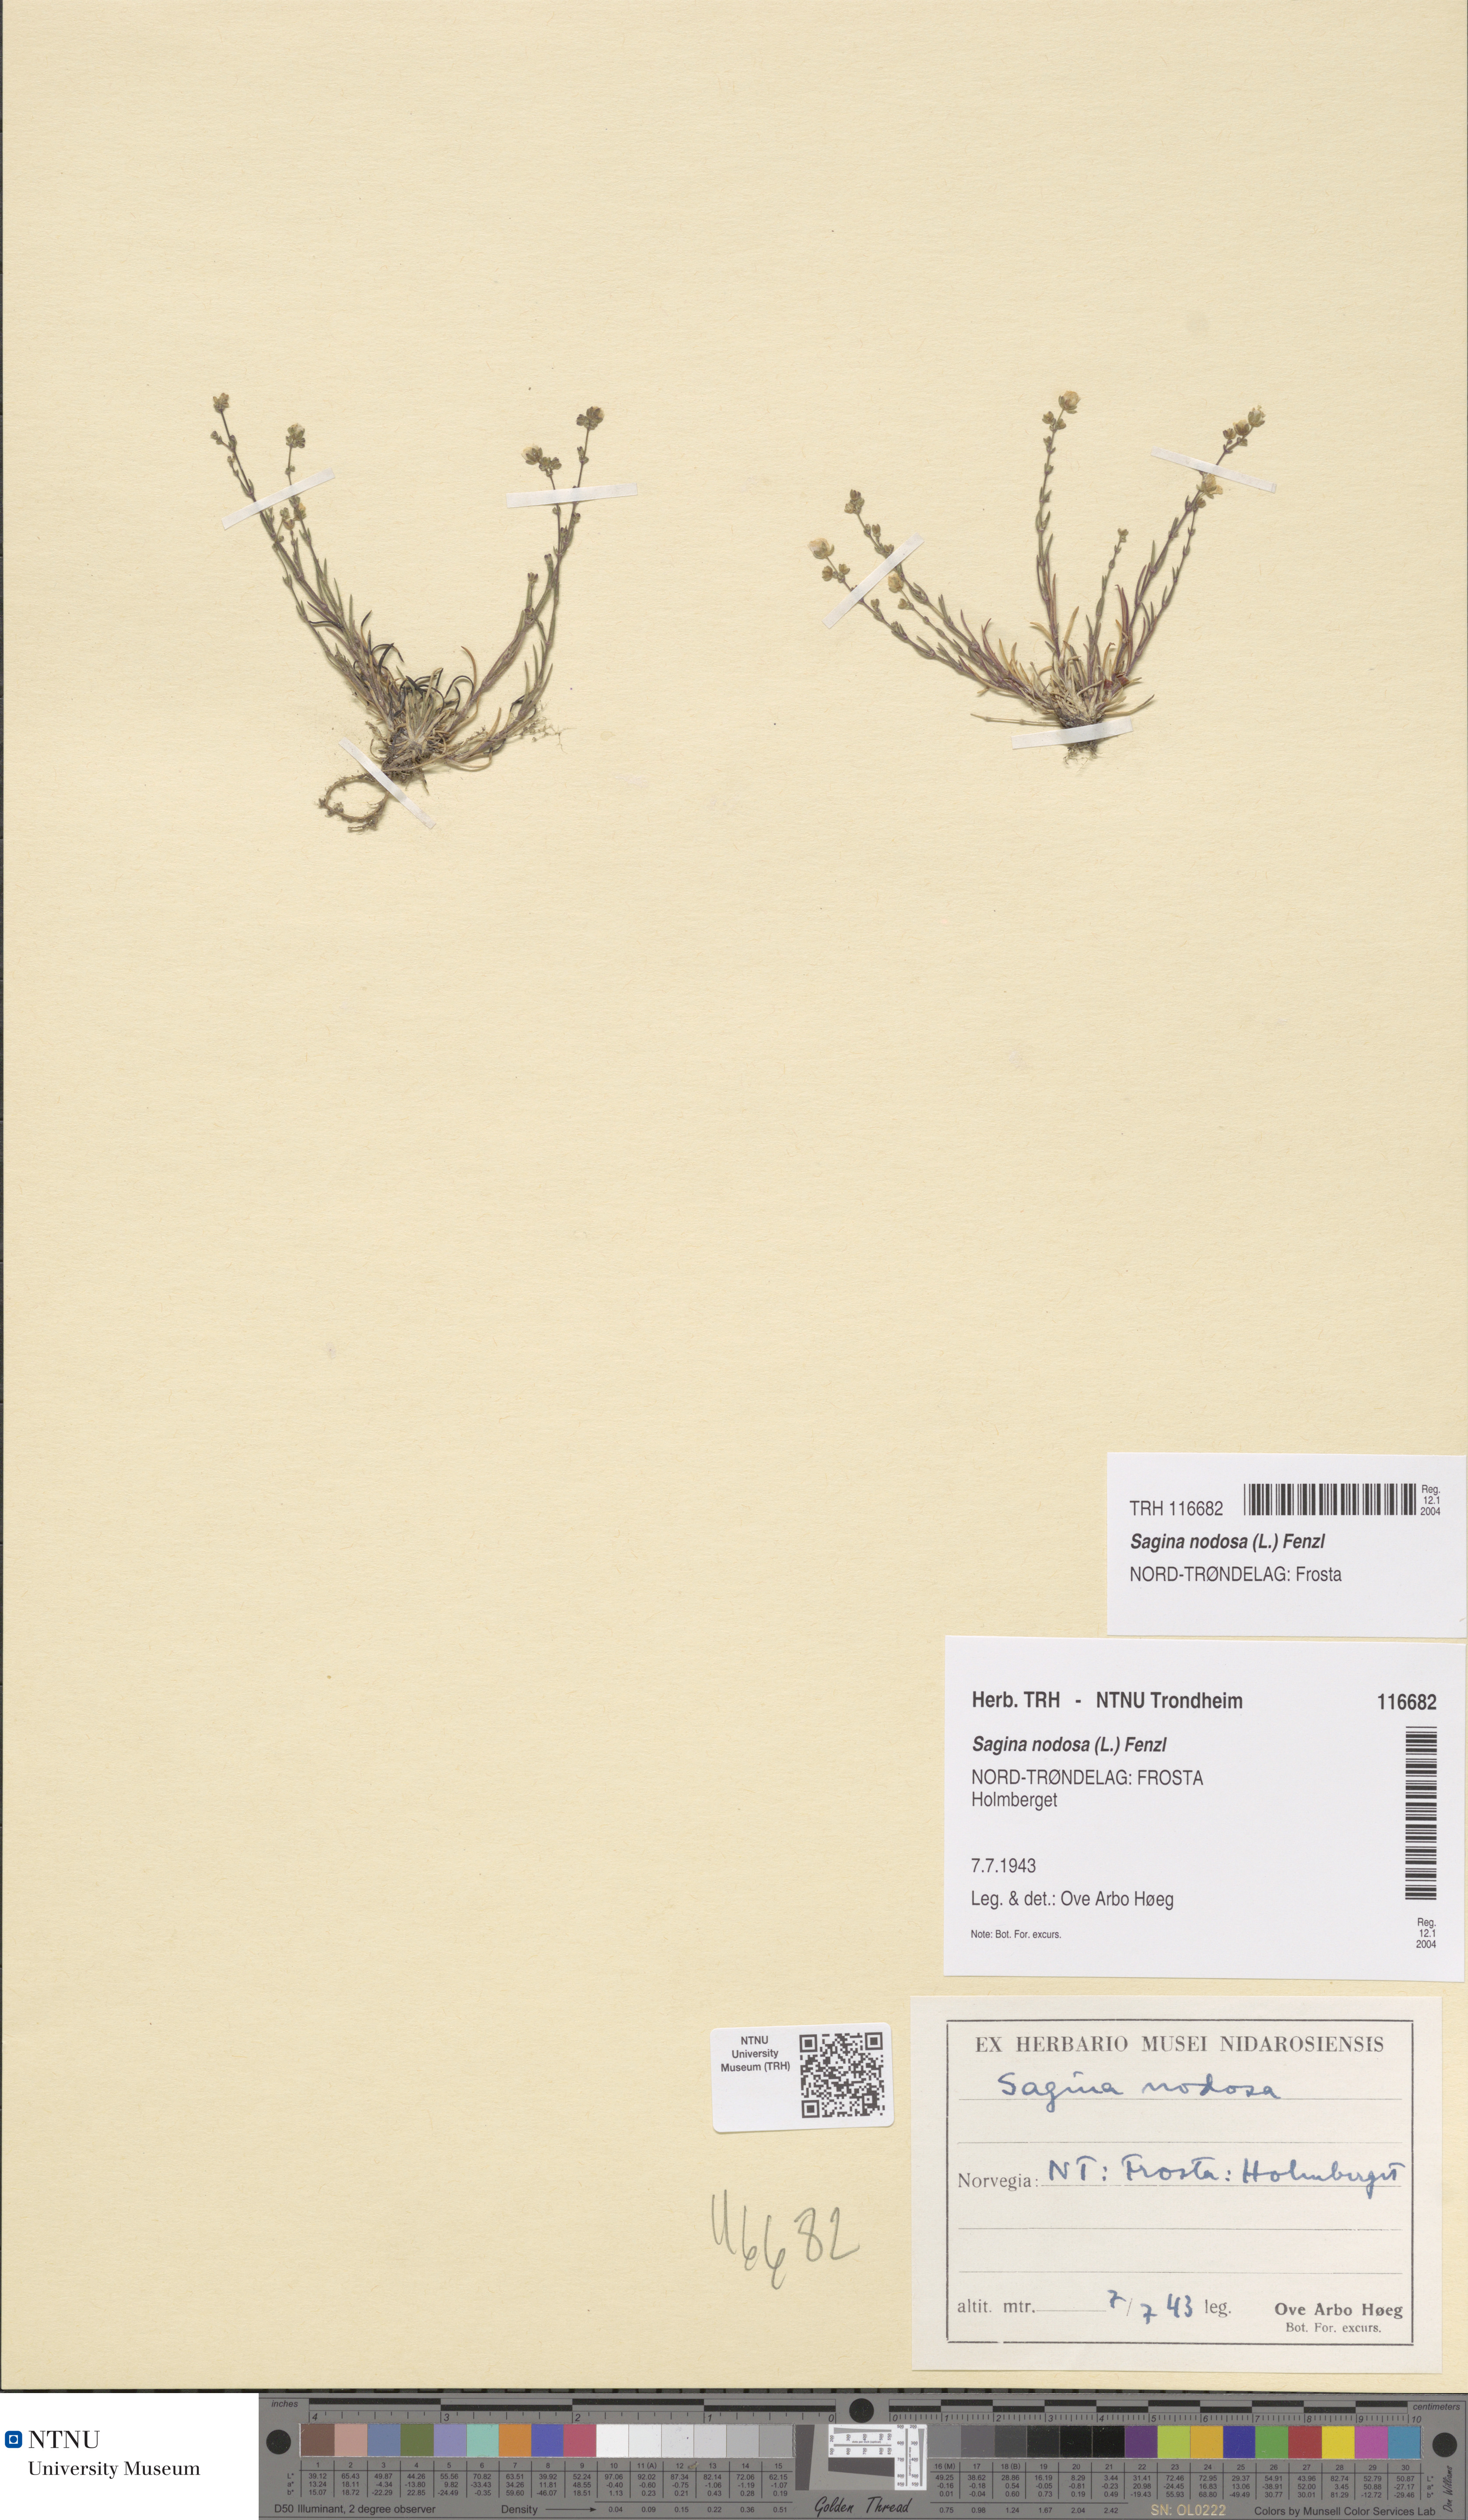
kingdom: Plantae
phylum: Tracheophyta
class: Magnoliopsida
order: Caryophyllales
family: Caryophyllaceae
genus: Sagina
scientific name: Sagina nodosa
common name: Knotted pearlwort
